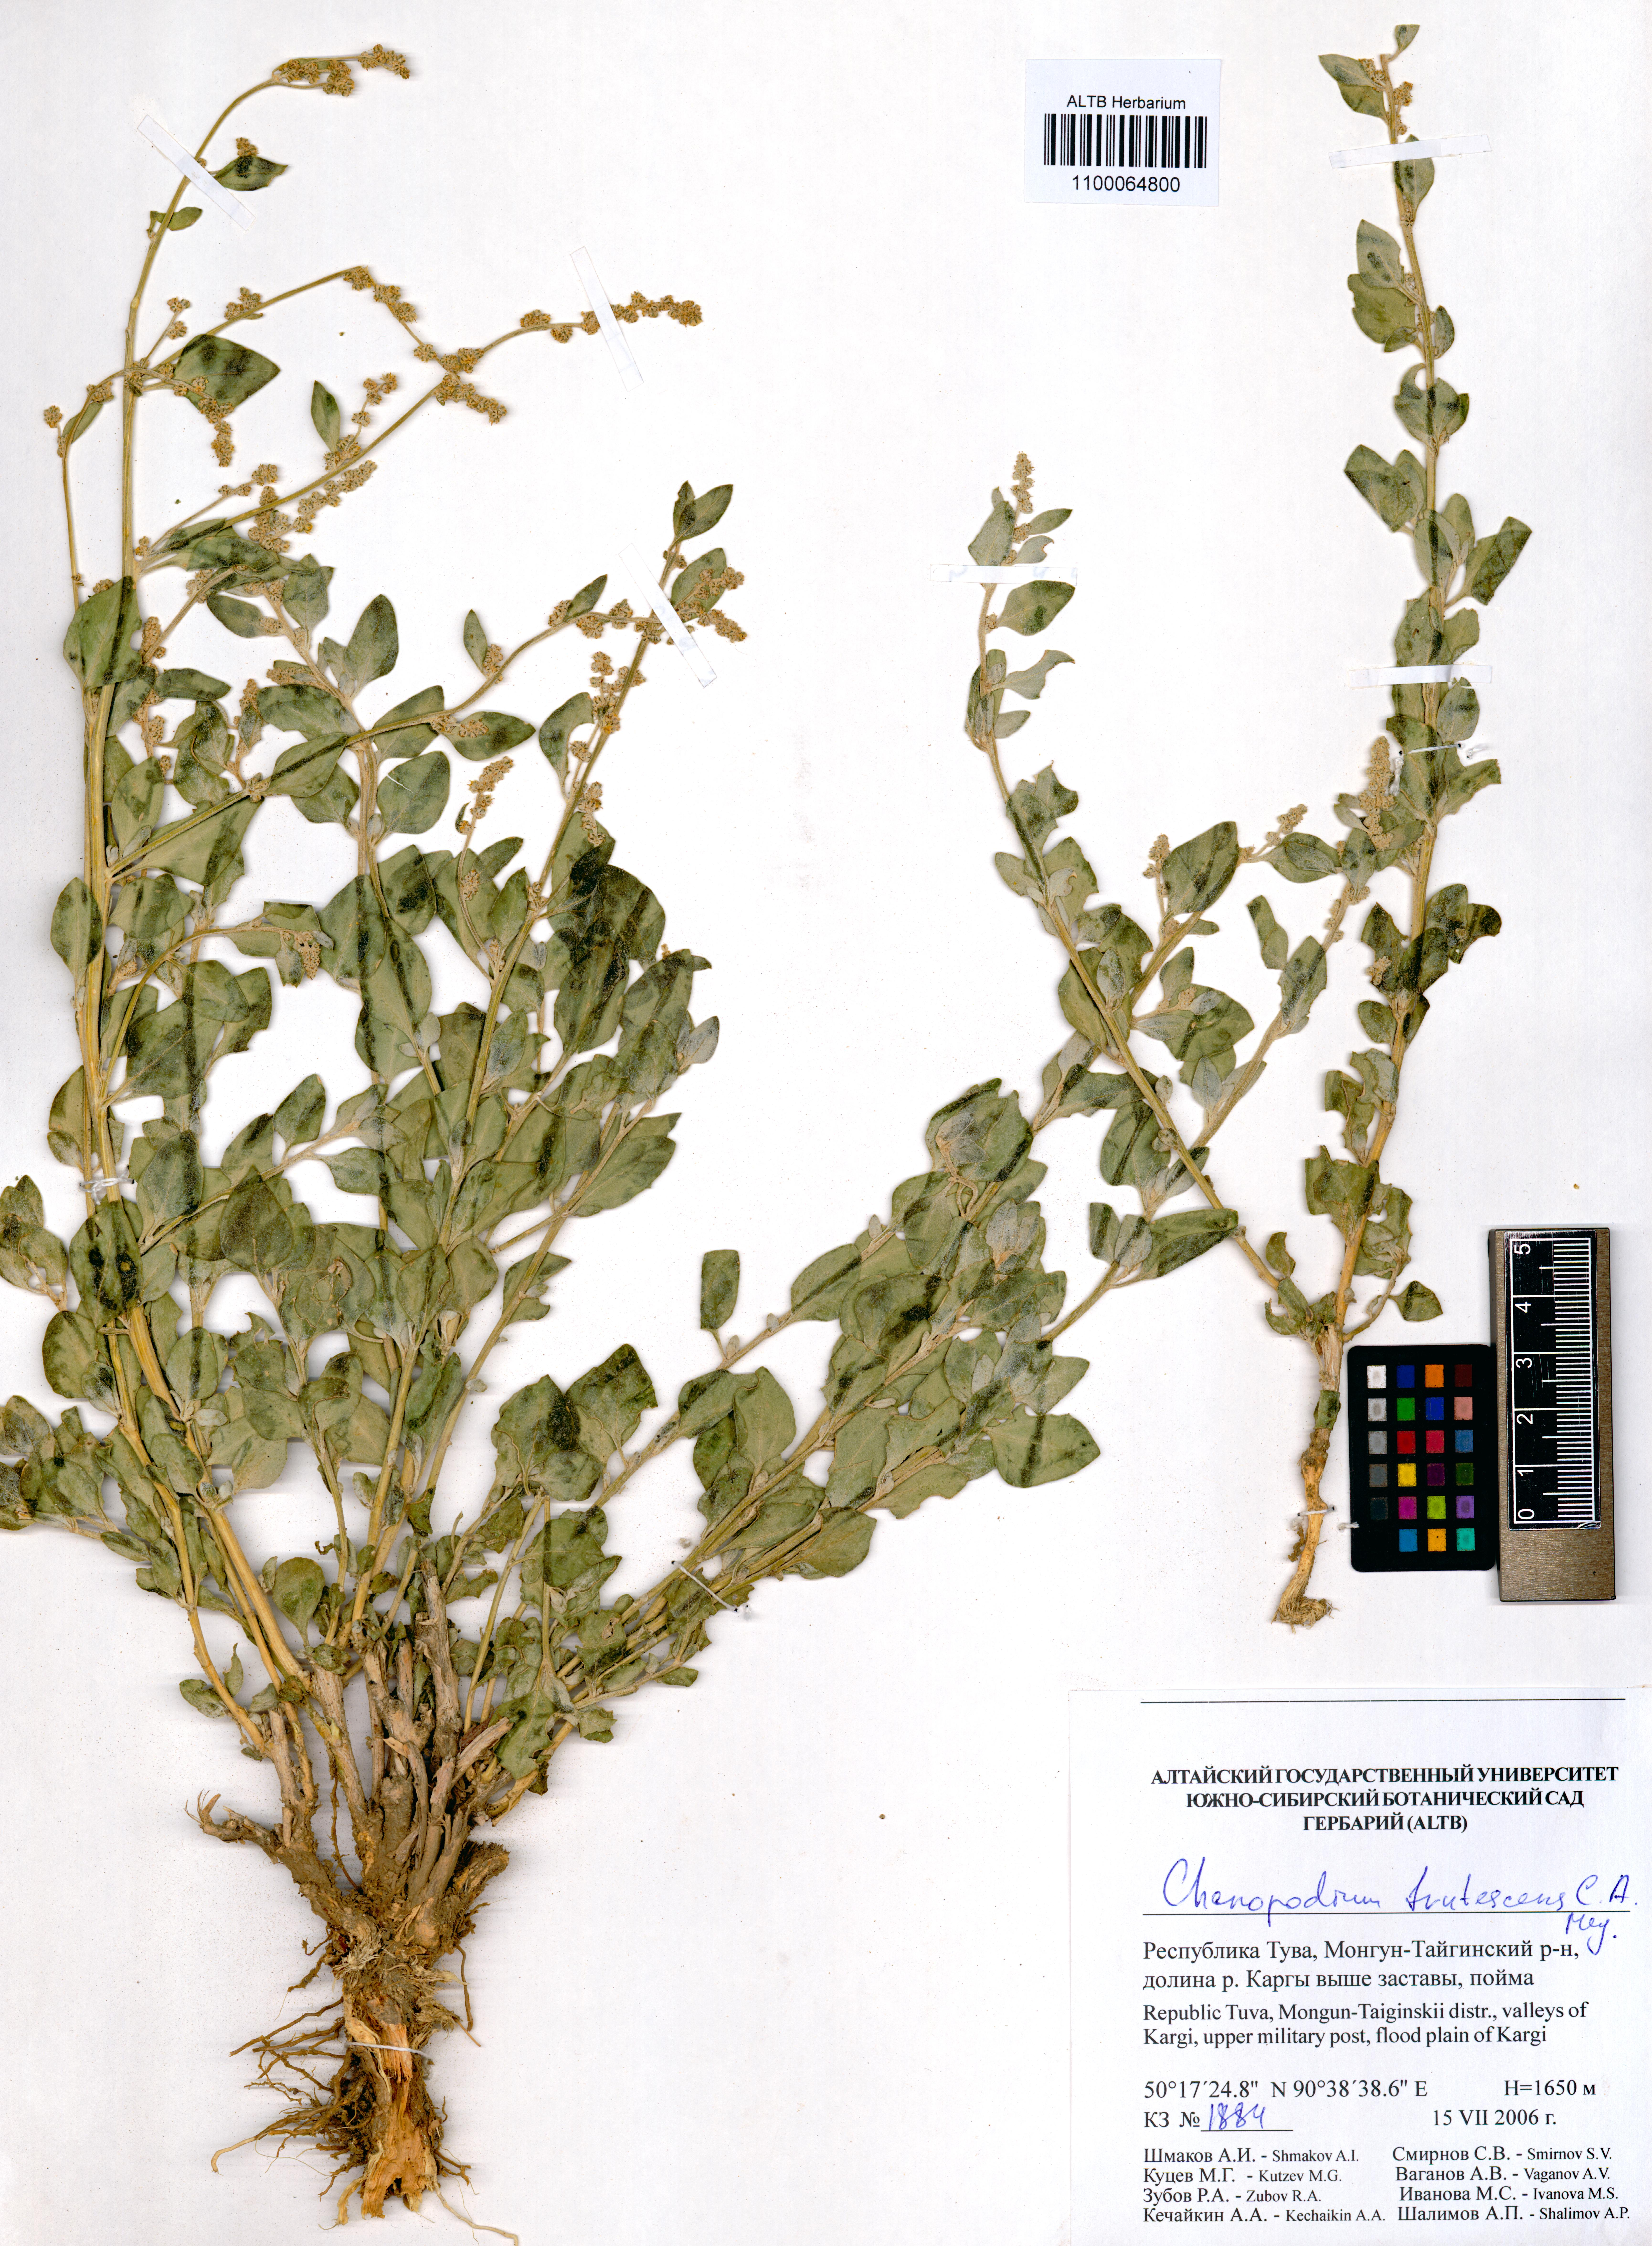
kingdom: Plantae
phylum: Tracheophyta
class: Magnoliopsida
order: Caryophyllales
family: Amaranthaceae
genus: Chenopodium
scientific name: Chenopodium frutescens
